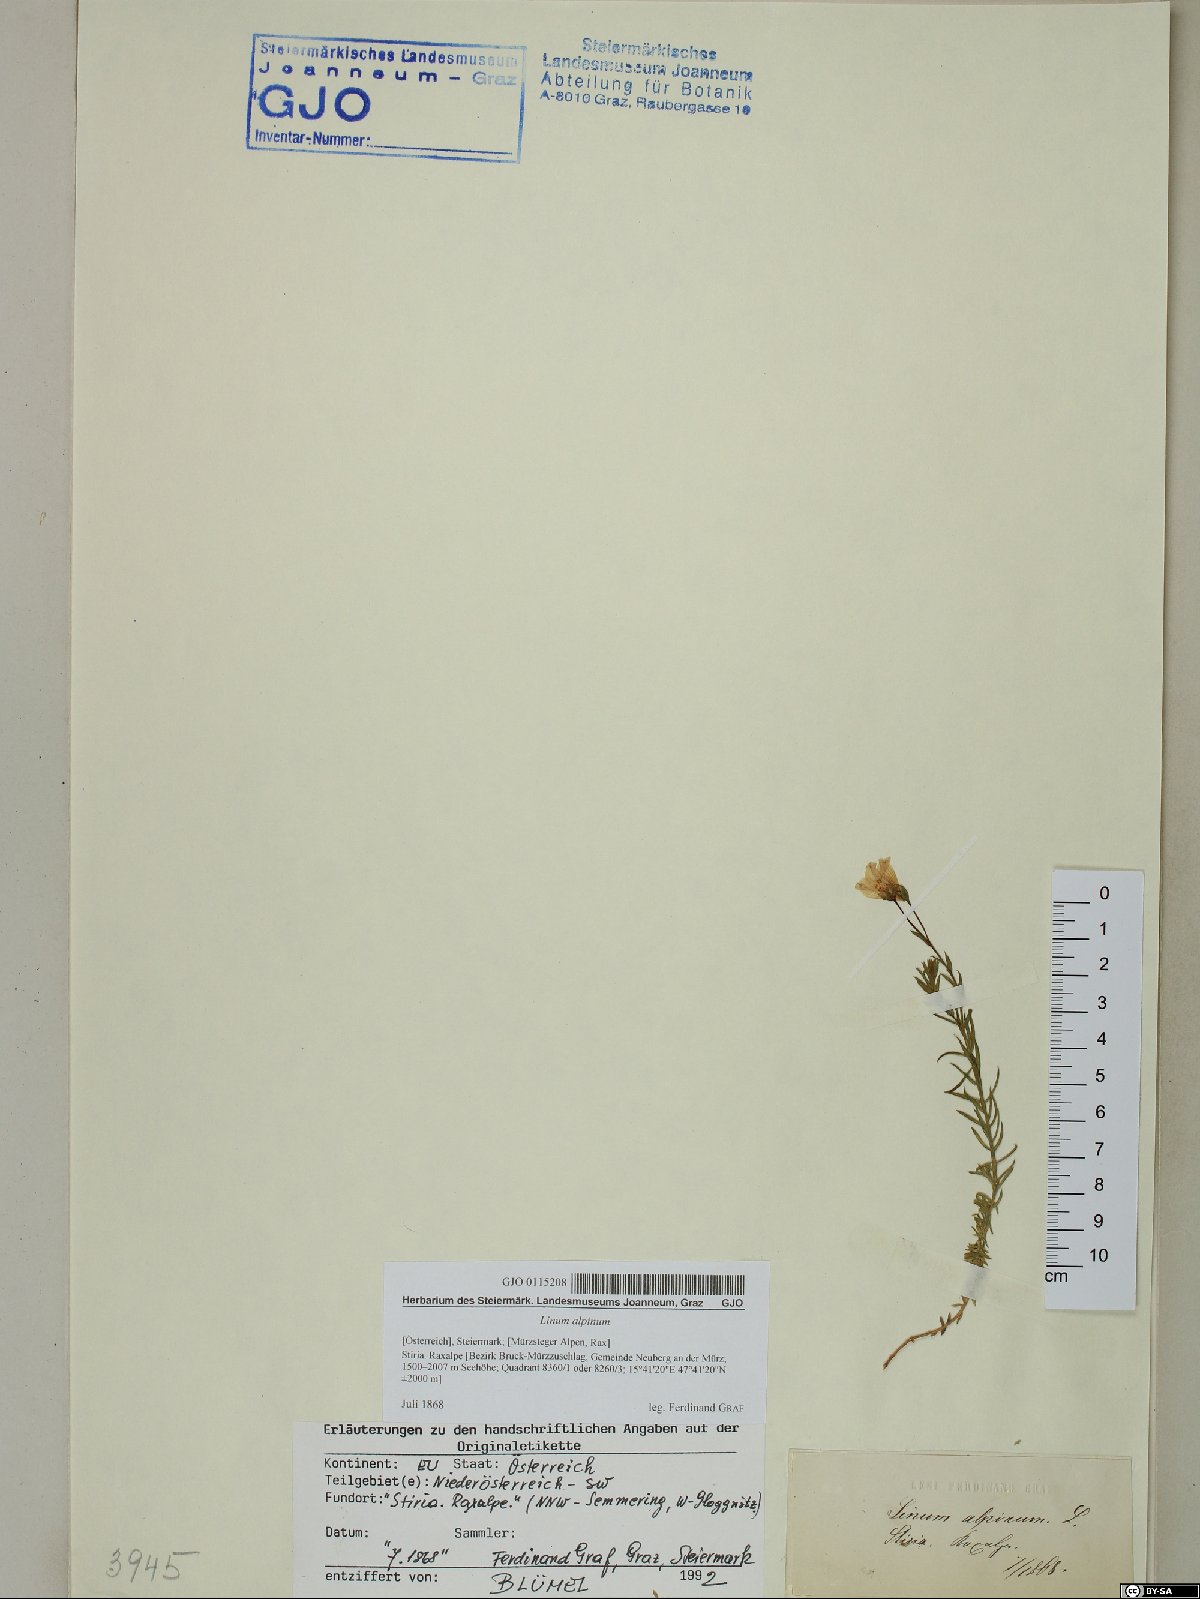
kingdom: Plantae
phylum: Tracheophyta
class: Magnoliopsida
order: Malpighiales
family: Linaceae
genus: Linum
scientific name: Linum alpinum
